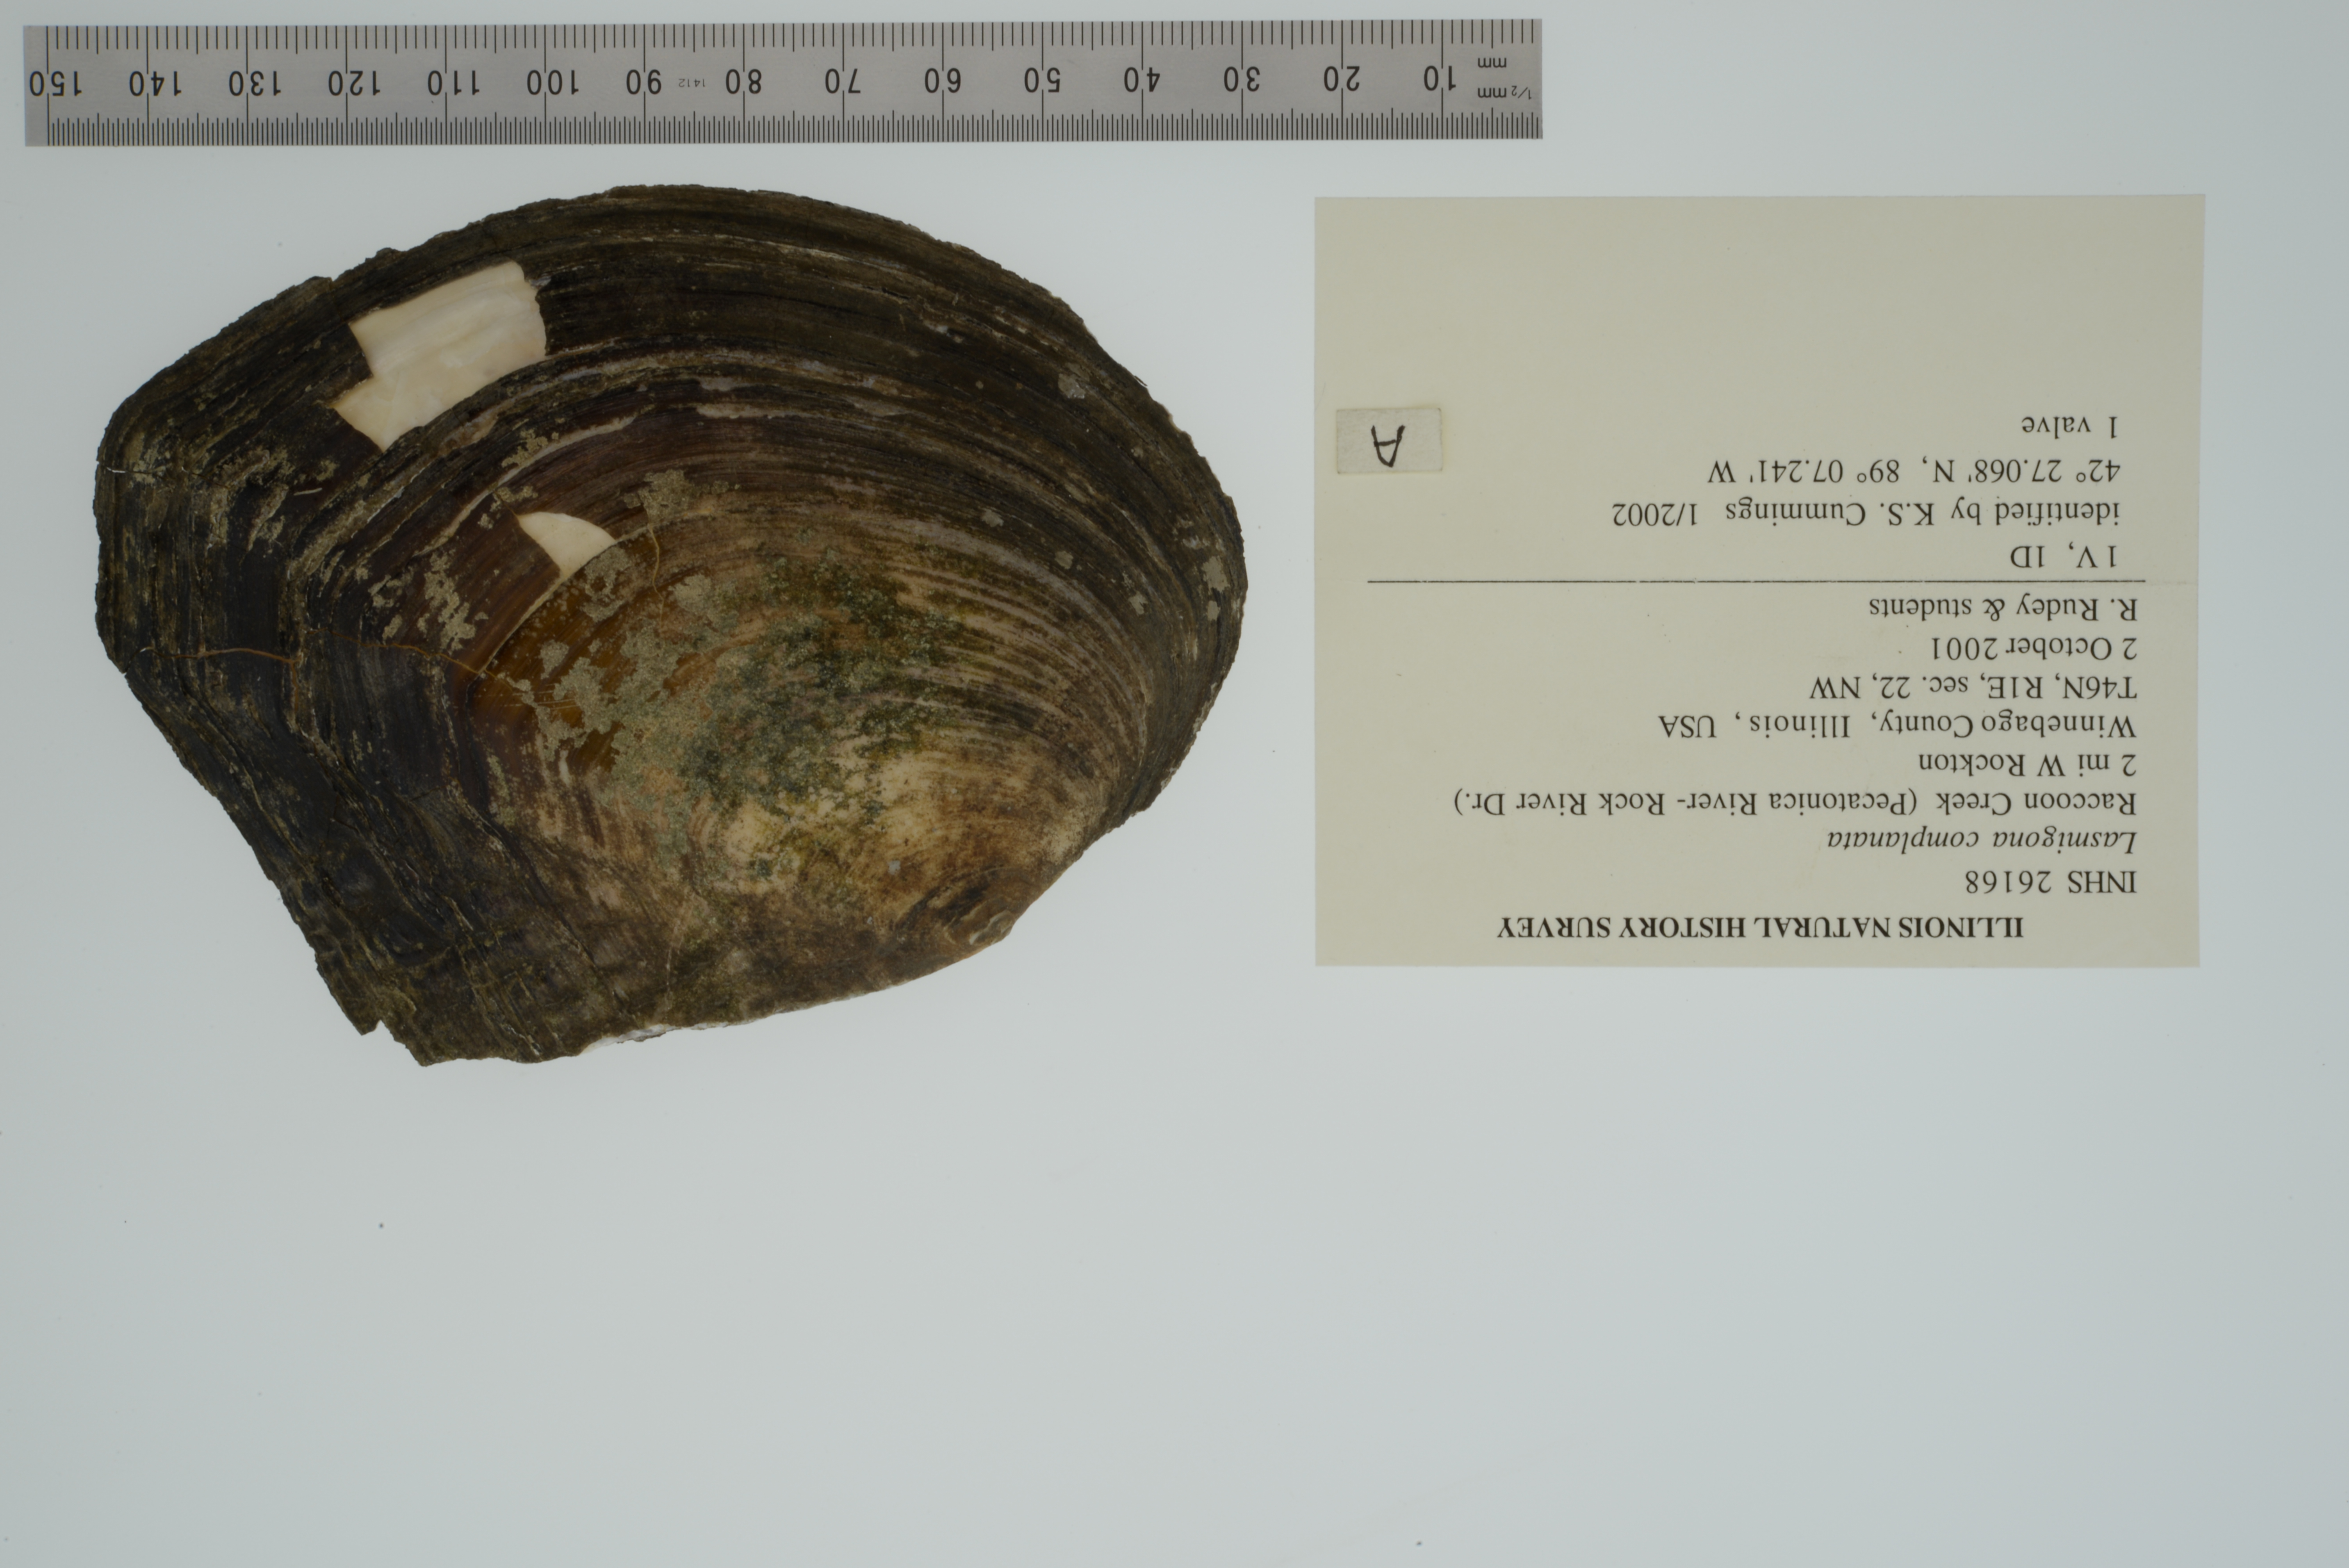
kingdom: Animalia
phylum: Mollusca
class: Bivalvia
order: Unionida
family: Unionidae
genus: Lasmigona
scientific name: Lasmigona complanata
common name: White heelsplitter
